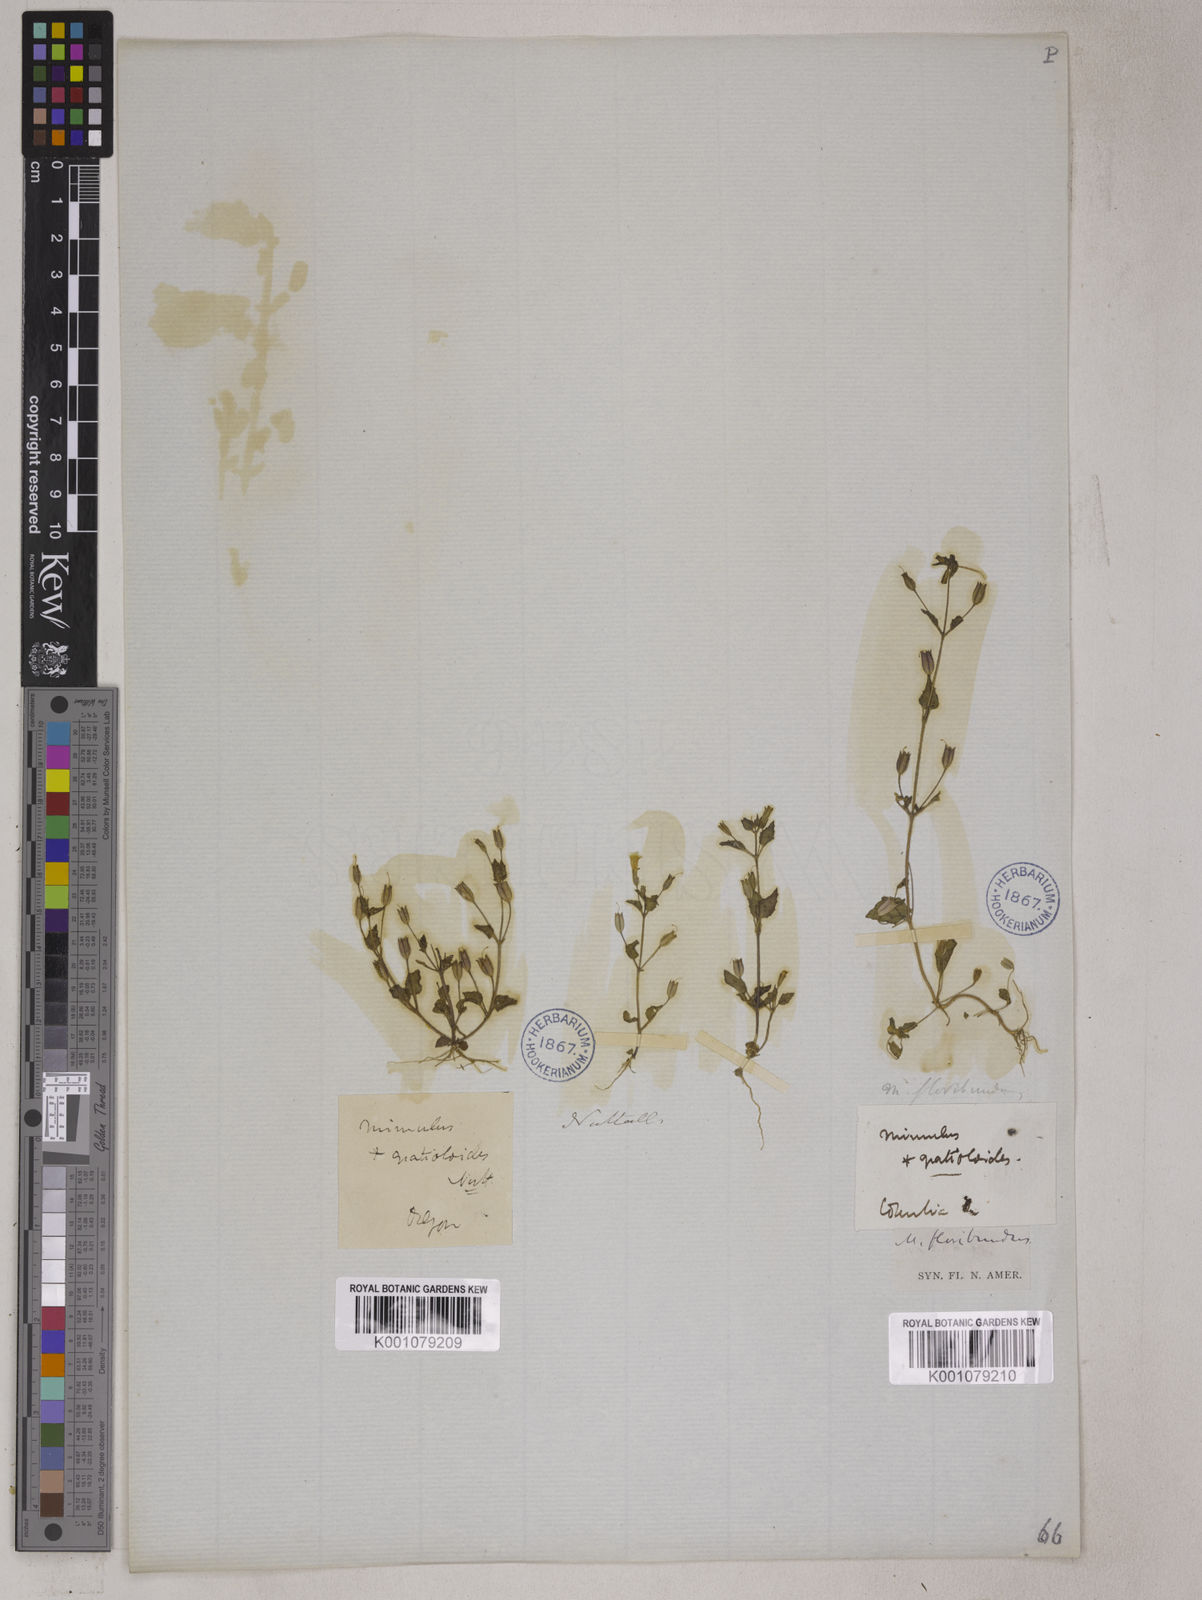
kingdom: Plantae
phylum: Tracheophyta
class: Magnoliopsida
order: Lamiales
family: Phrymaceae
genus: Erythranthe
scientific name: Erythranthe floribunda
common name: Floriferous monkeyflower
